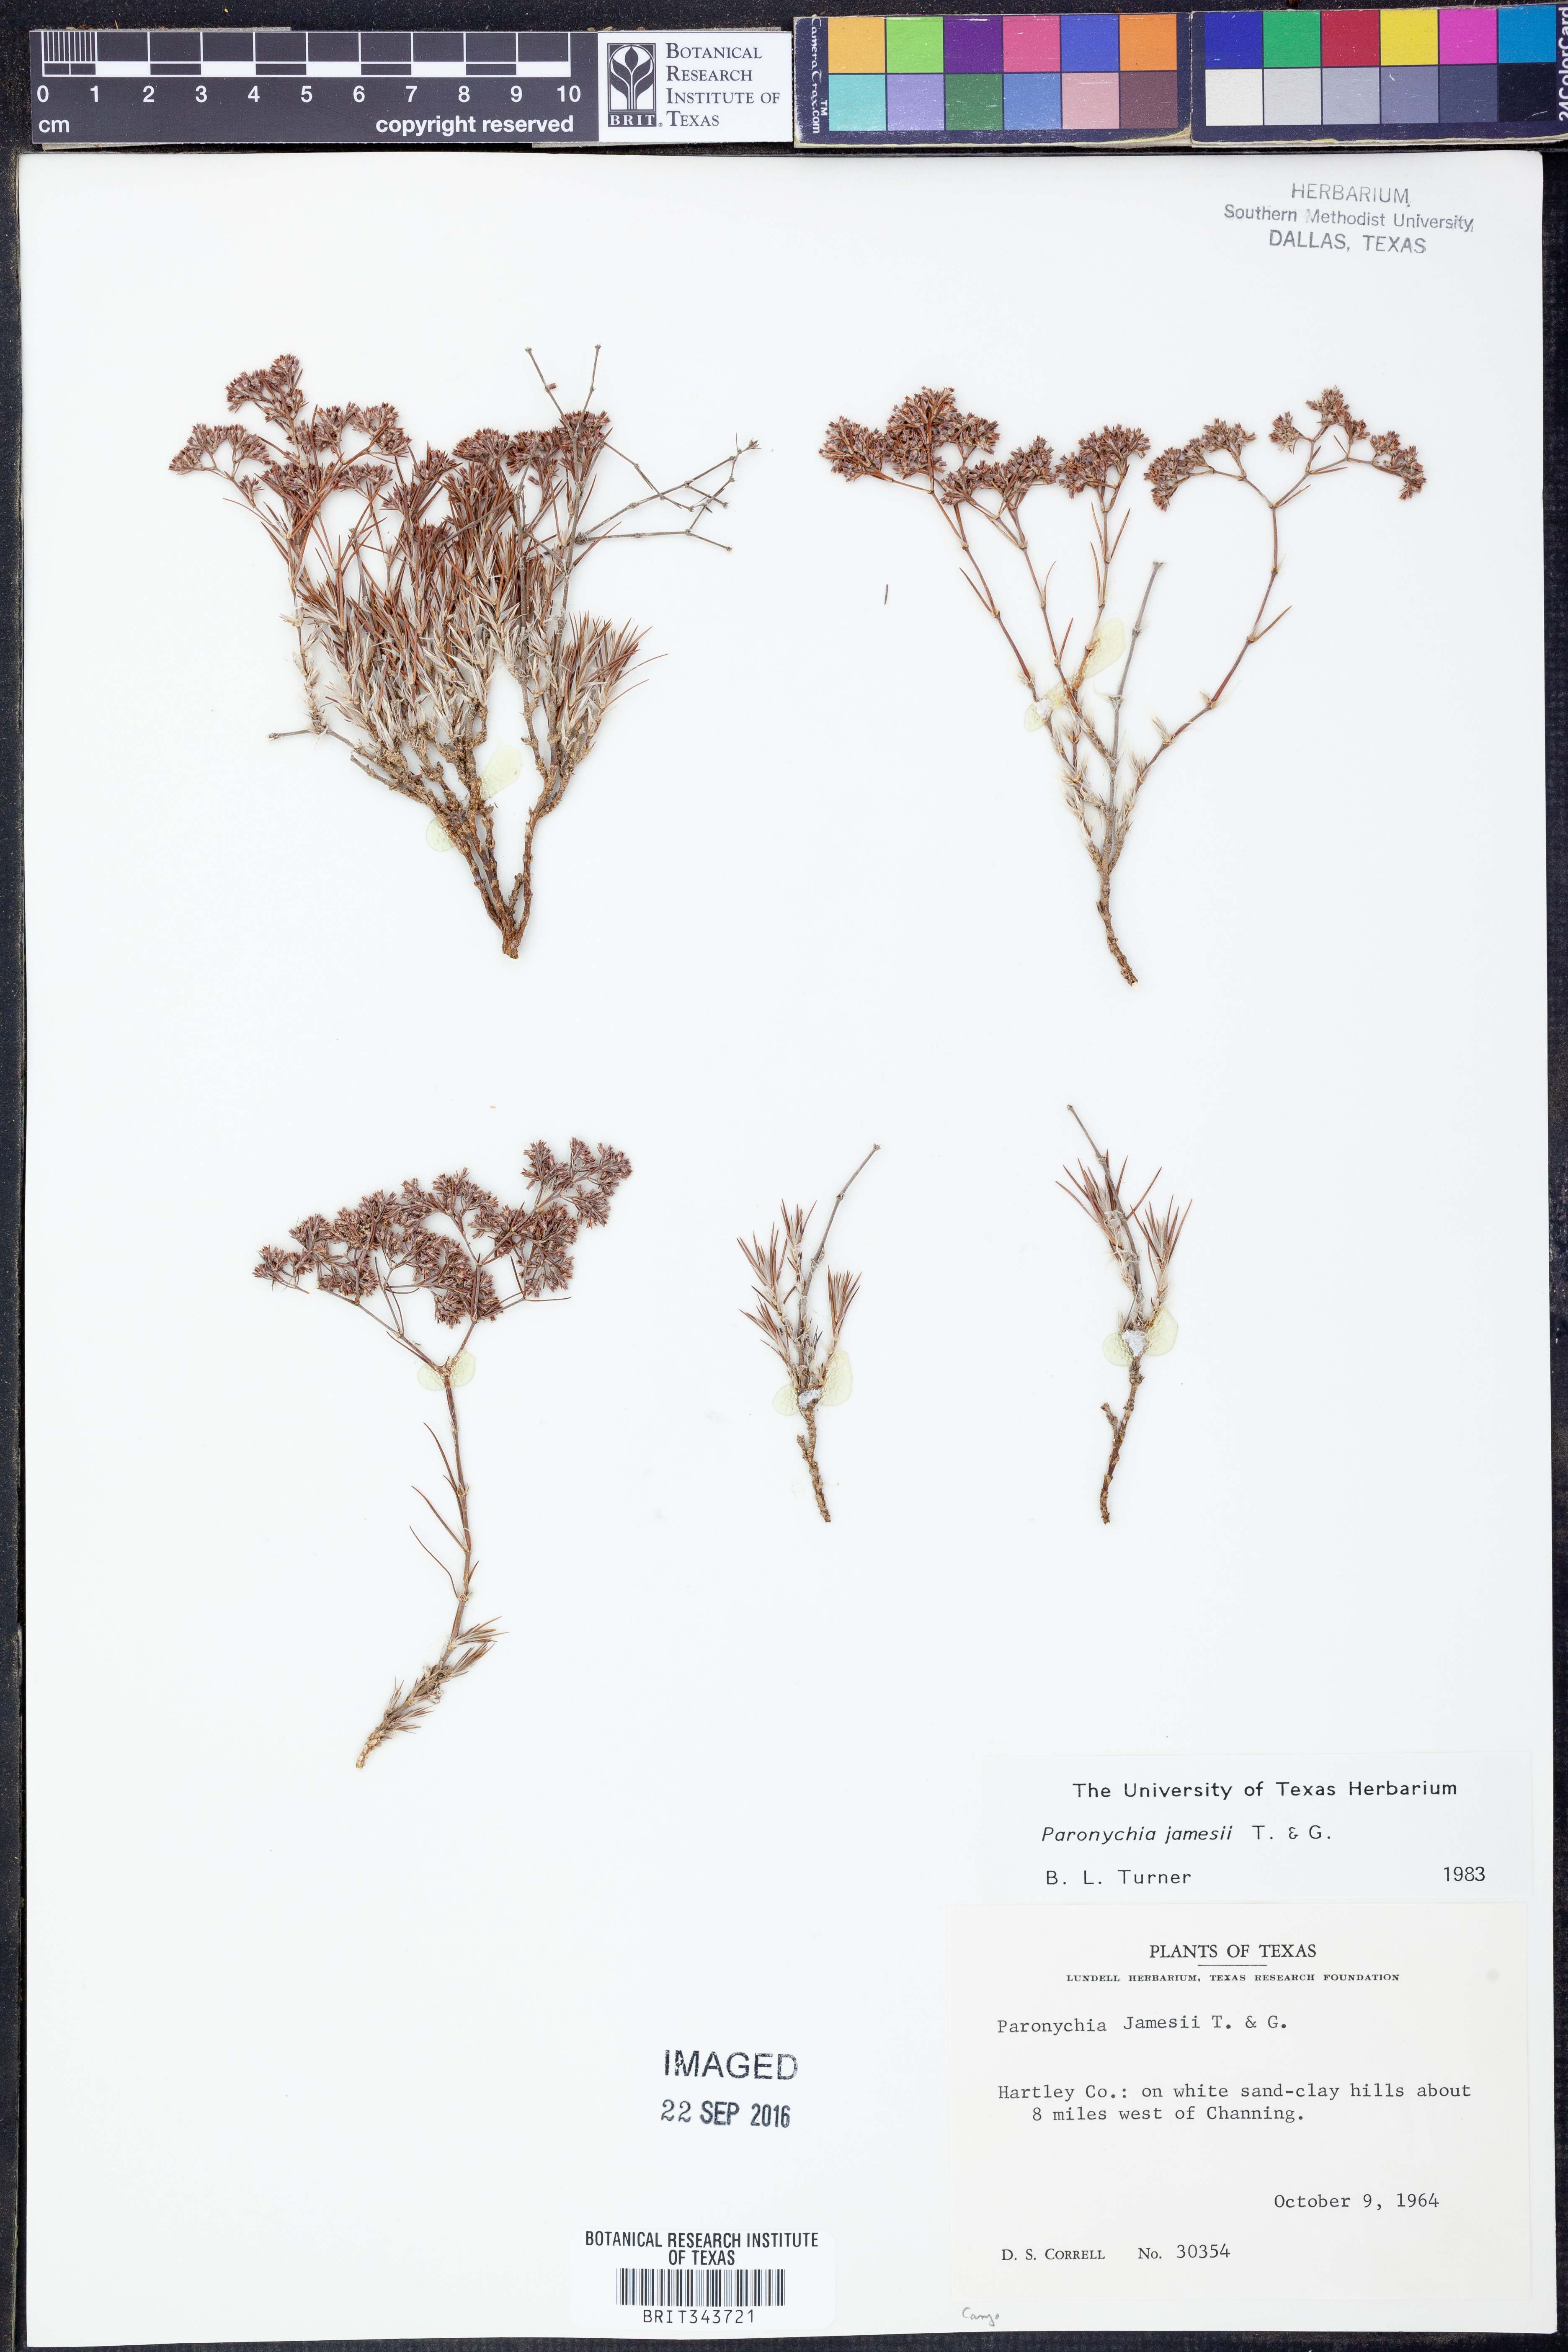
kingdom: Plantae
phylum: Tracheophyta
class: Magnoliopsida
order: Caryophyllales
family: Caryophyllaceae
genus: Paronychia
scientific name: Paronychia jamesii
